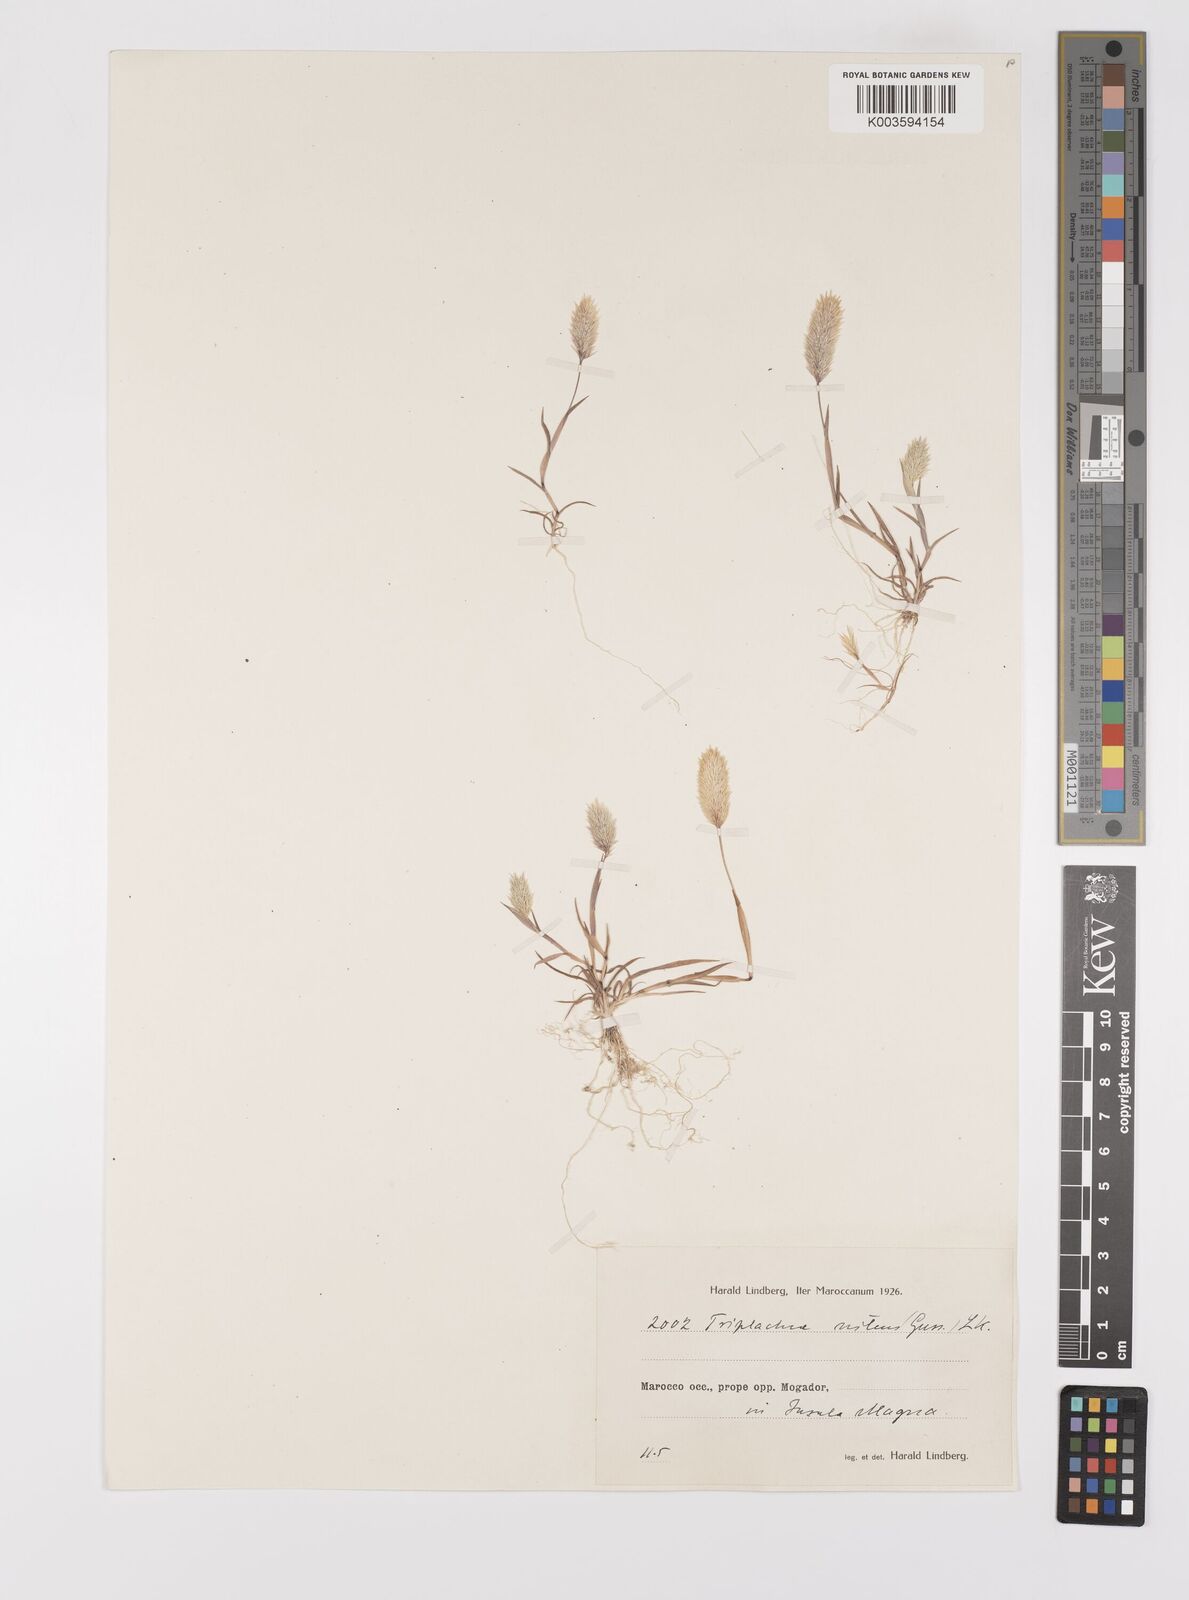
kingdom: Plantae
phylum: Tracheophyta
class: Liliopsida
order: Poales
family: Poaceae
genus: Triplachne
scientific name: Triplachne nitens
